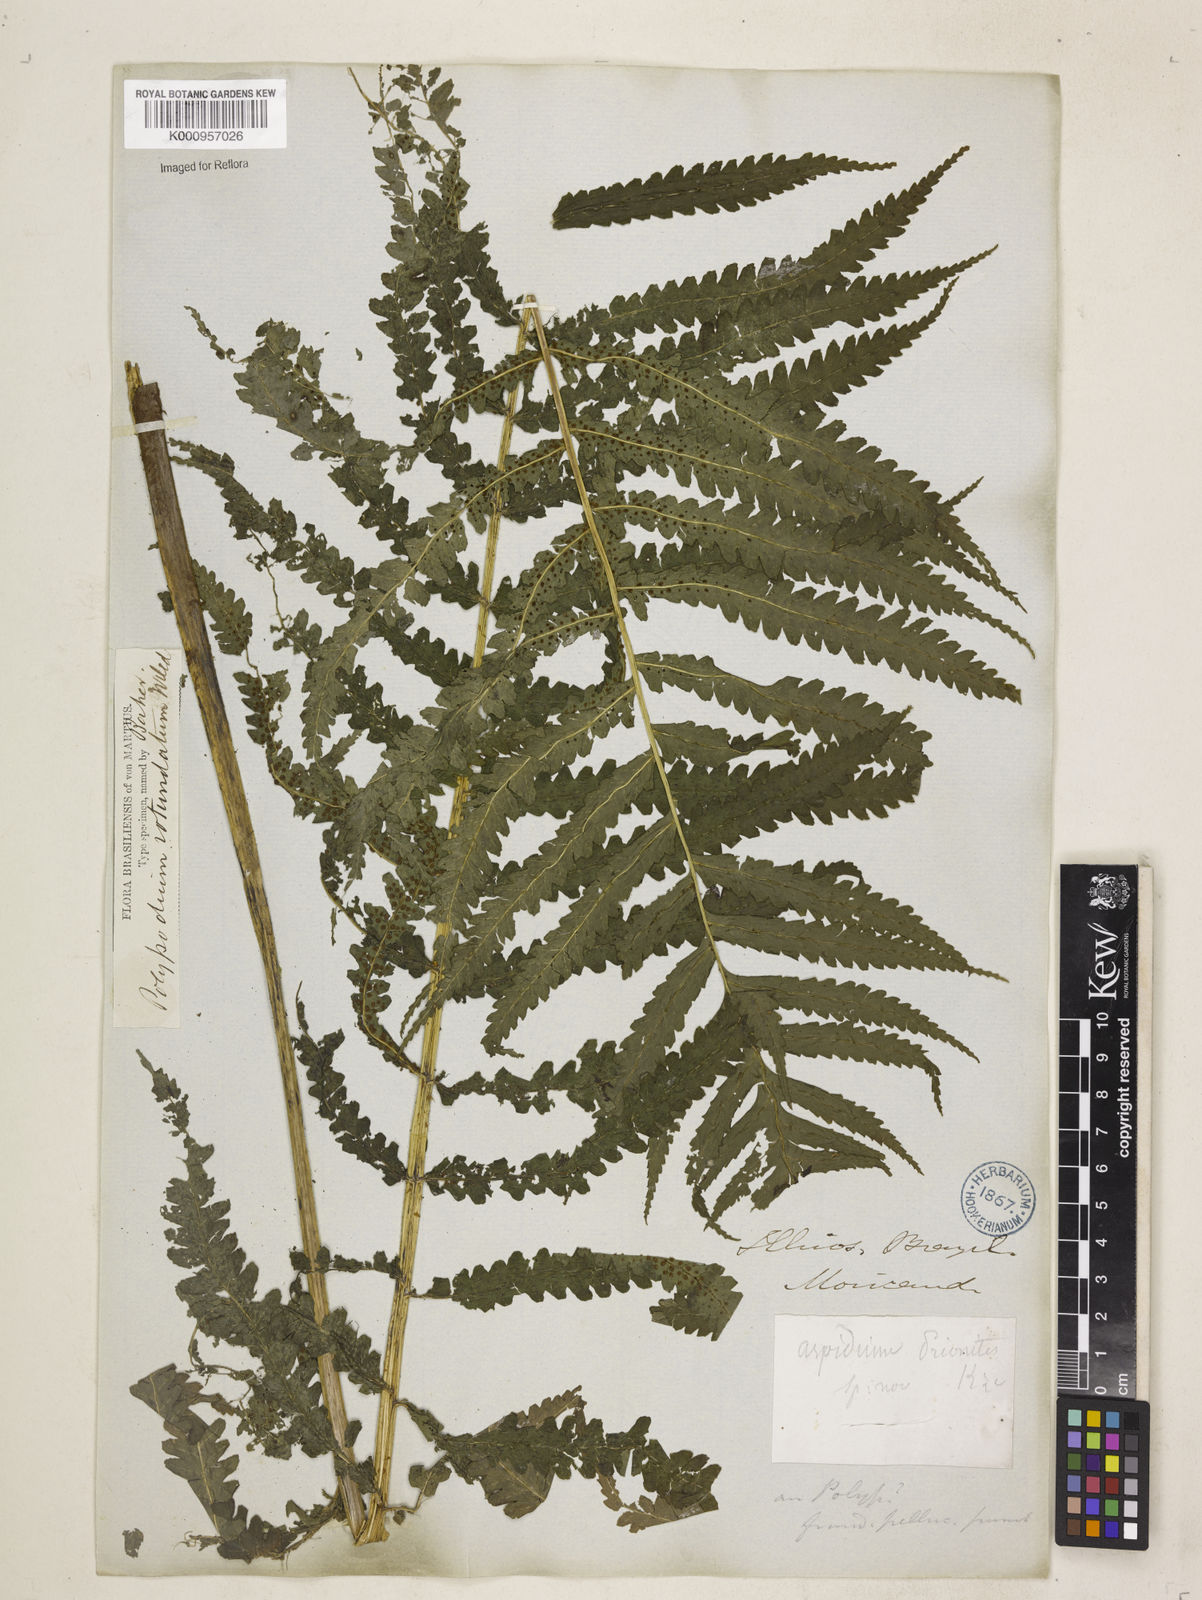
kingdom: Plantae
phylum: Tracheophyta
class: Polypodiopsida
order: Polypodiales
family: Dryopteridaceae
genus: Stigmatopteris
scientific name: Stigmatopteris prionites
